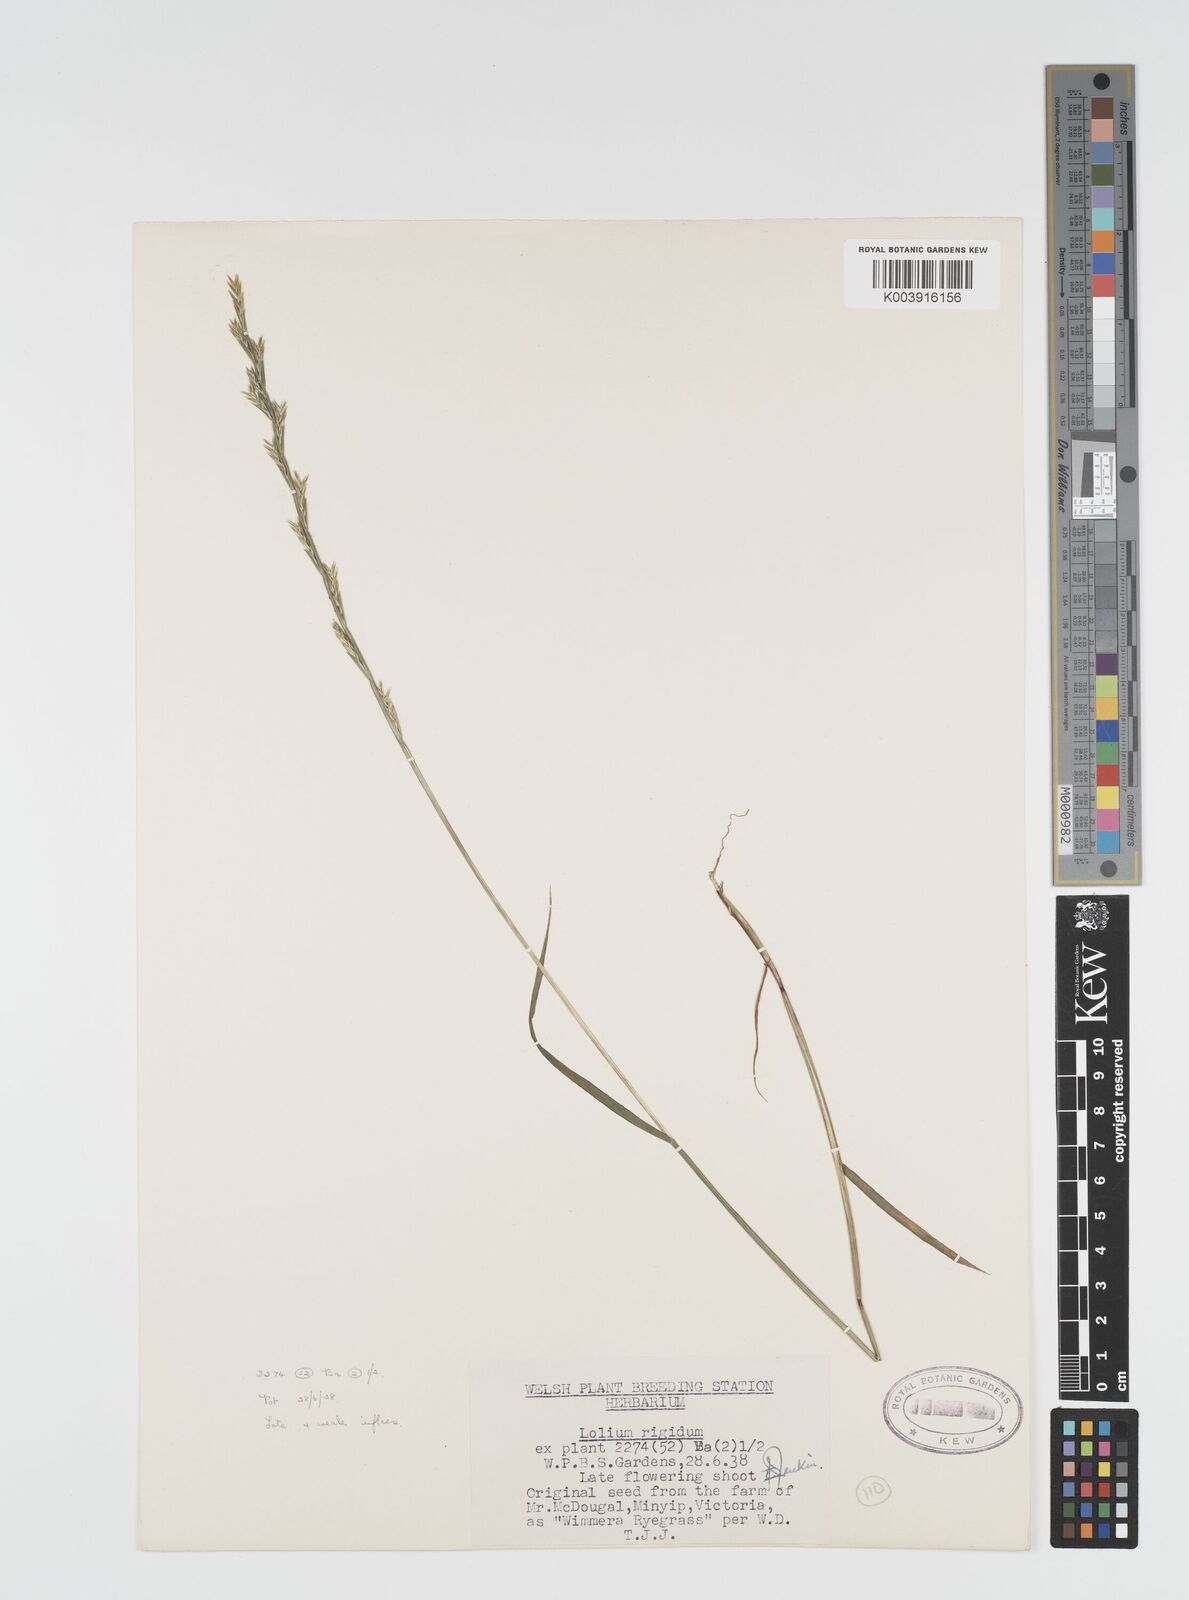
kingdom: Plantae
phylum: Tracheophyta
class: Liliopsida
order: Poales
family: Poaceae
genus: Lolium
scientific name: Lolium rigidum
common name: Wimmera ryegrass
